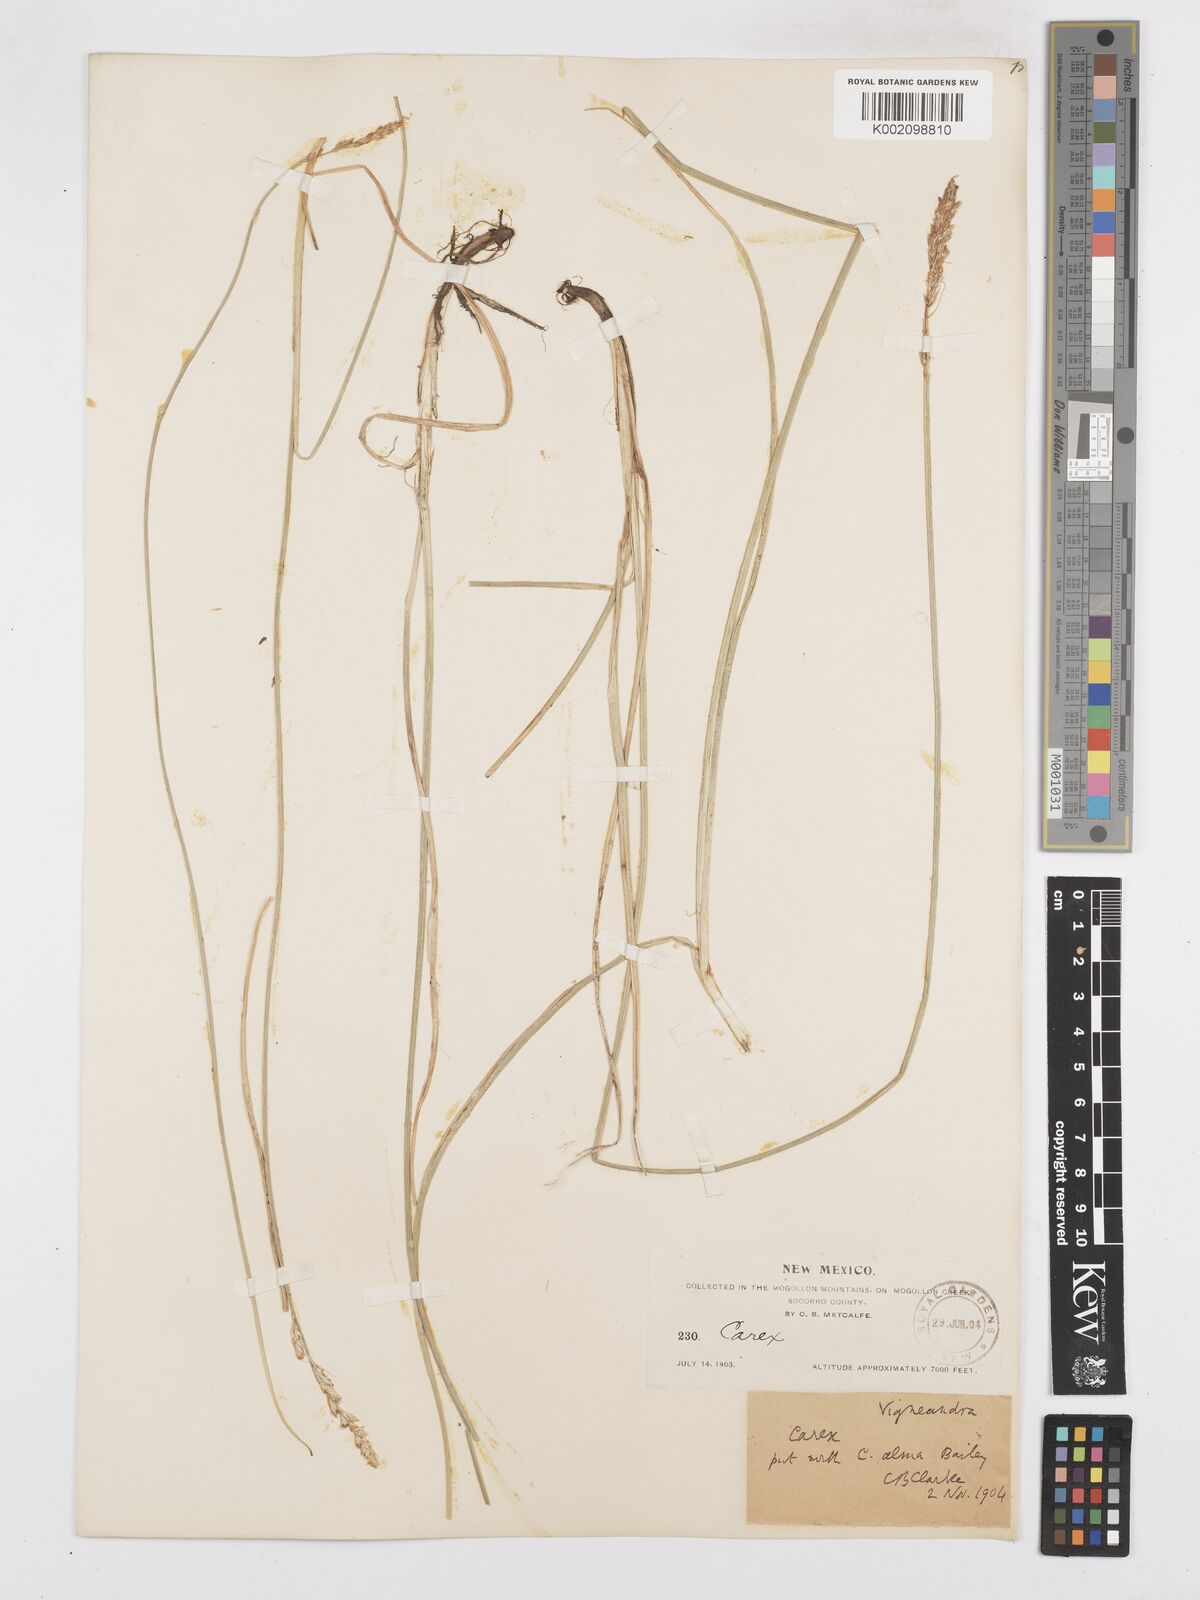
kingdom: Plantae
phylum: Tracheophyta
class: Liliopsida
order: Poales
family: Cyperaceae
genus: Carex
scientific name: Carex alma
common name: Alma sedge
